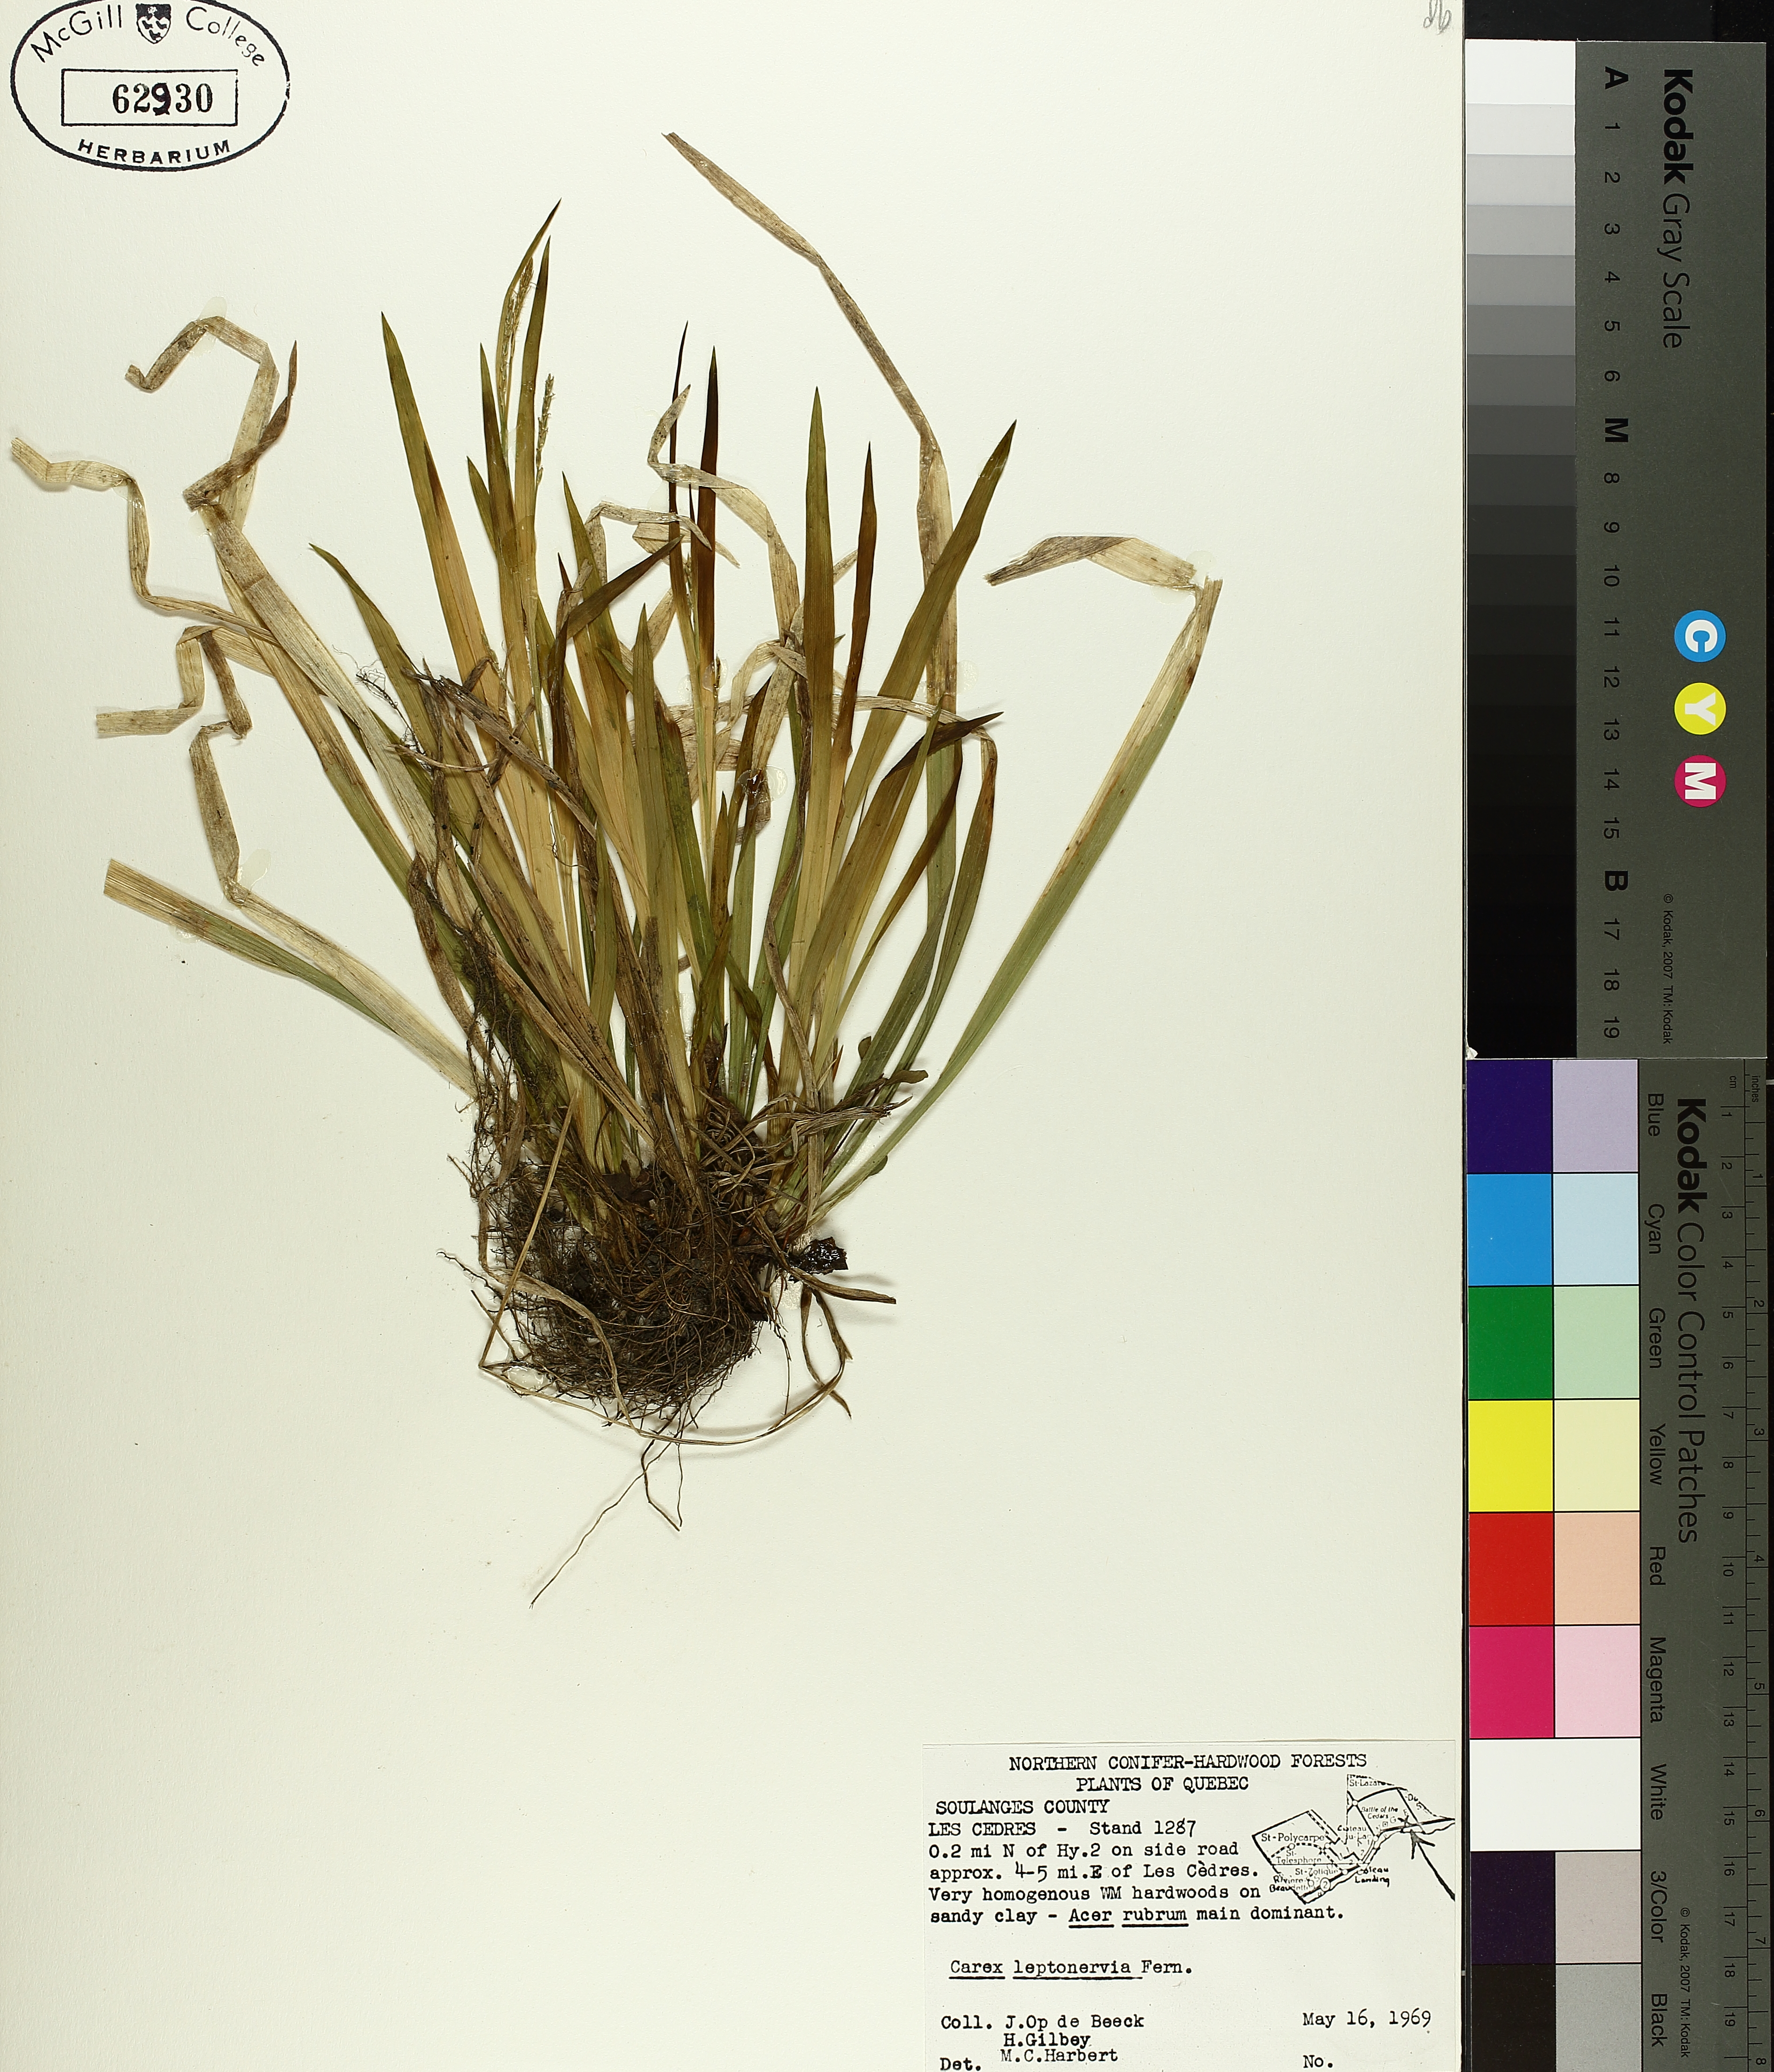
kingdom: Plantae
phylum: Tracheophyta
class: Liliopsida
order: Poales
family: Cyperaceae
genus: Carex
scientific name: Carex leptonervia
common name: Few-nerved wood sedge
